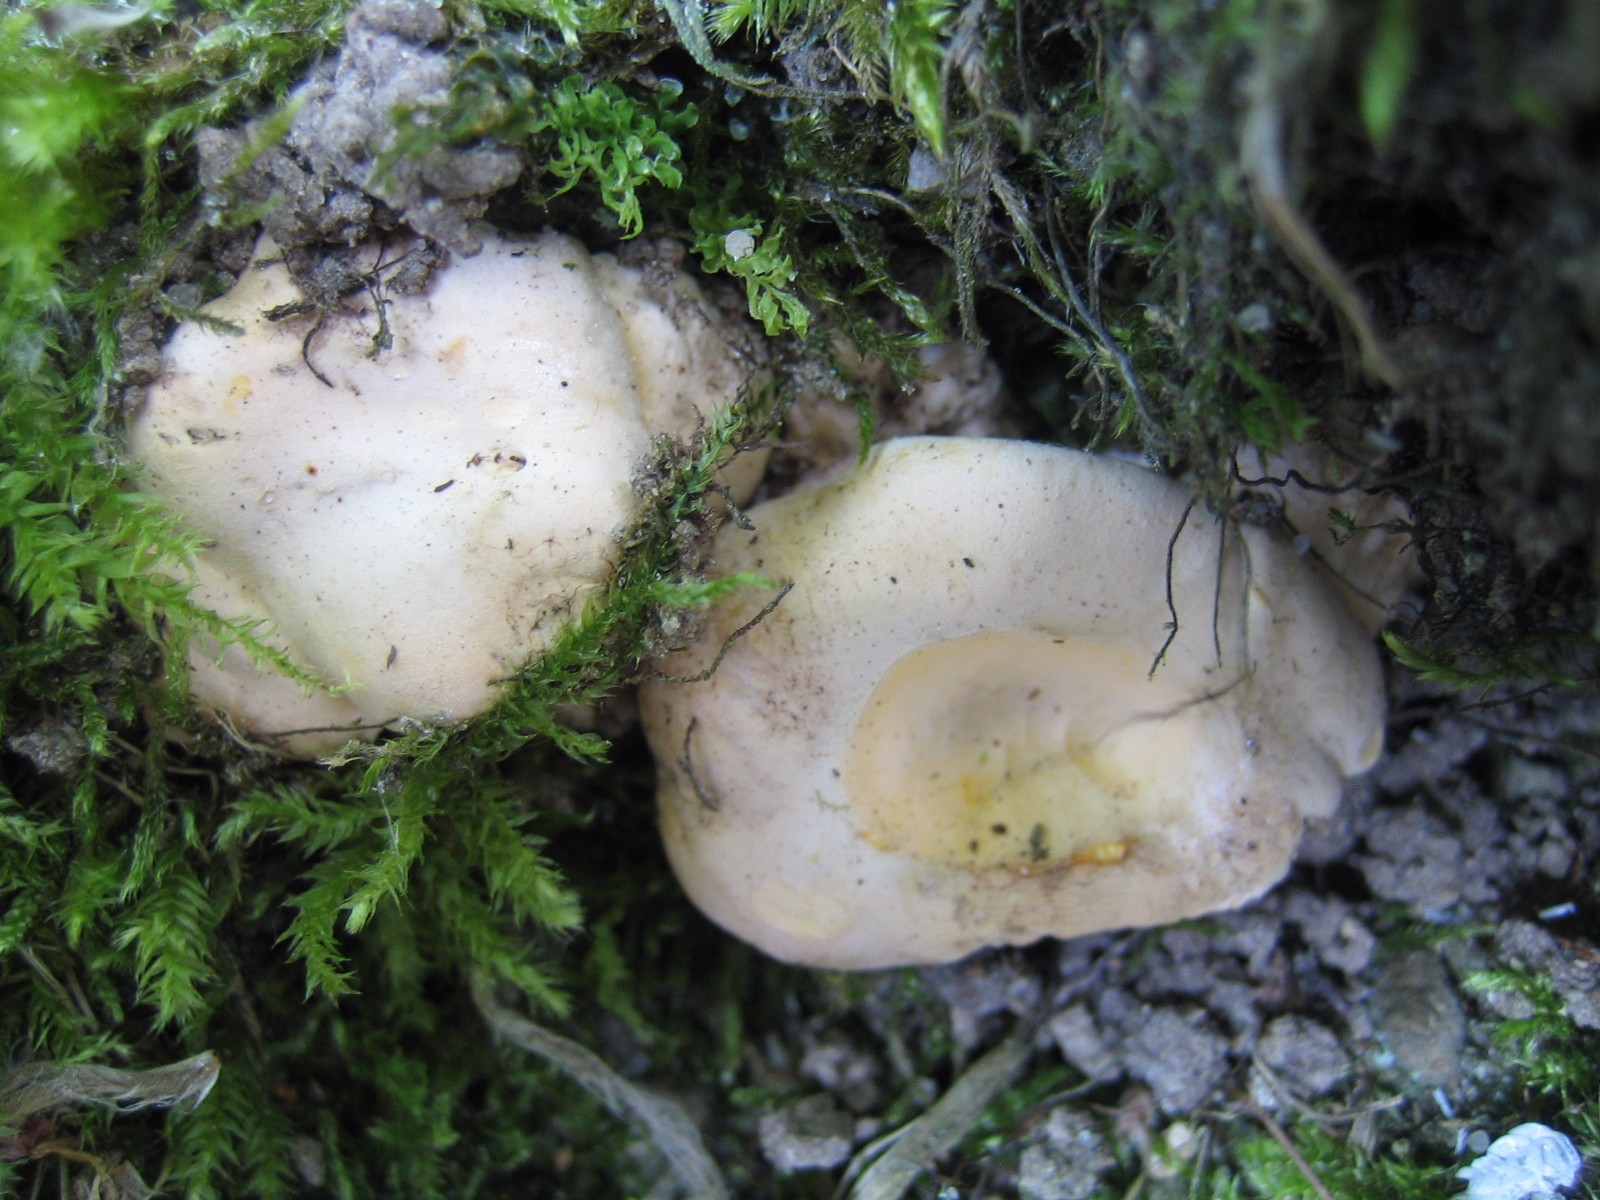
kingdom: Fungi
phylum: Basidiomycota
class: Agaricomycetes
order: Cantharellales
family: Hydnaceae
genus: Cantharellus
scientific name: Cantharellus pallens
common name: bleg kantarel
